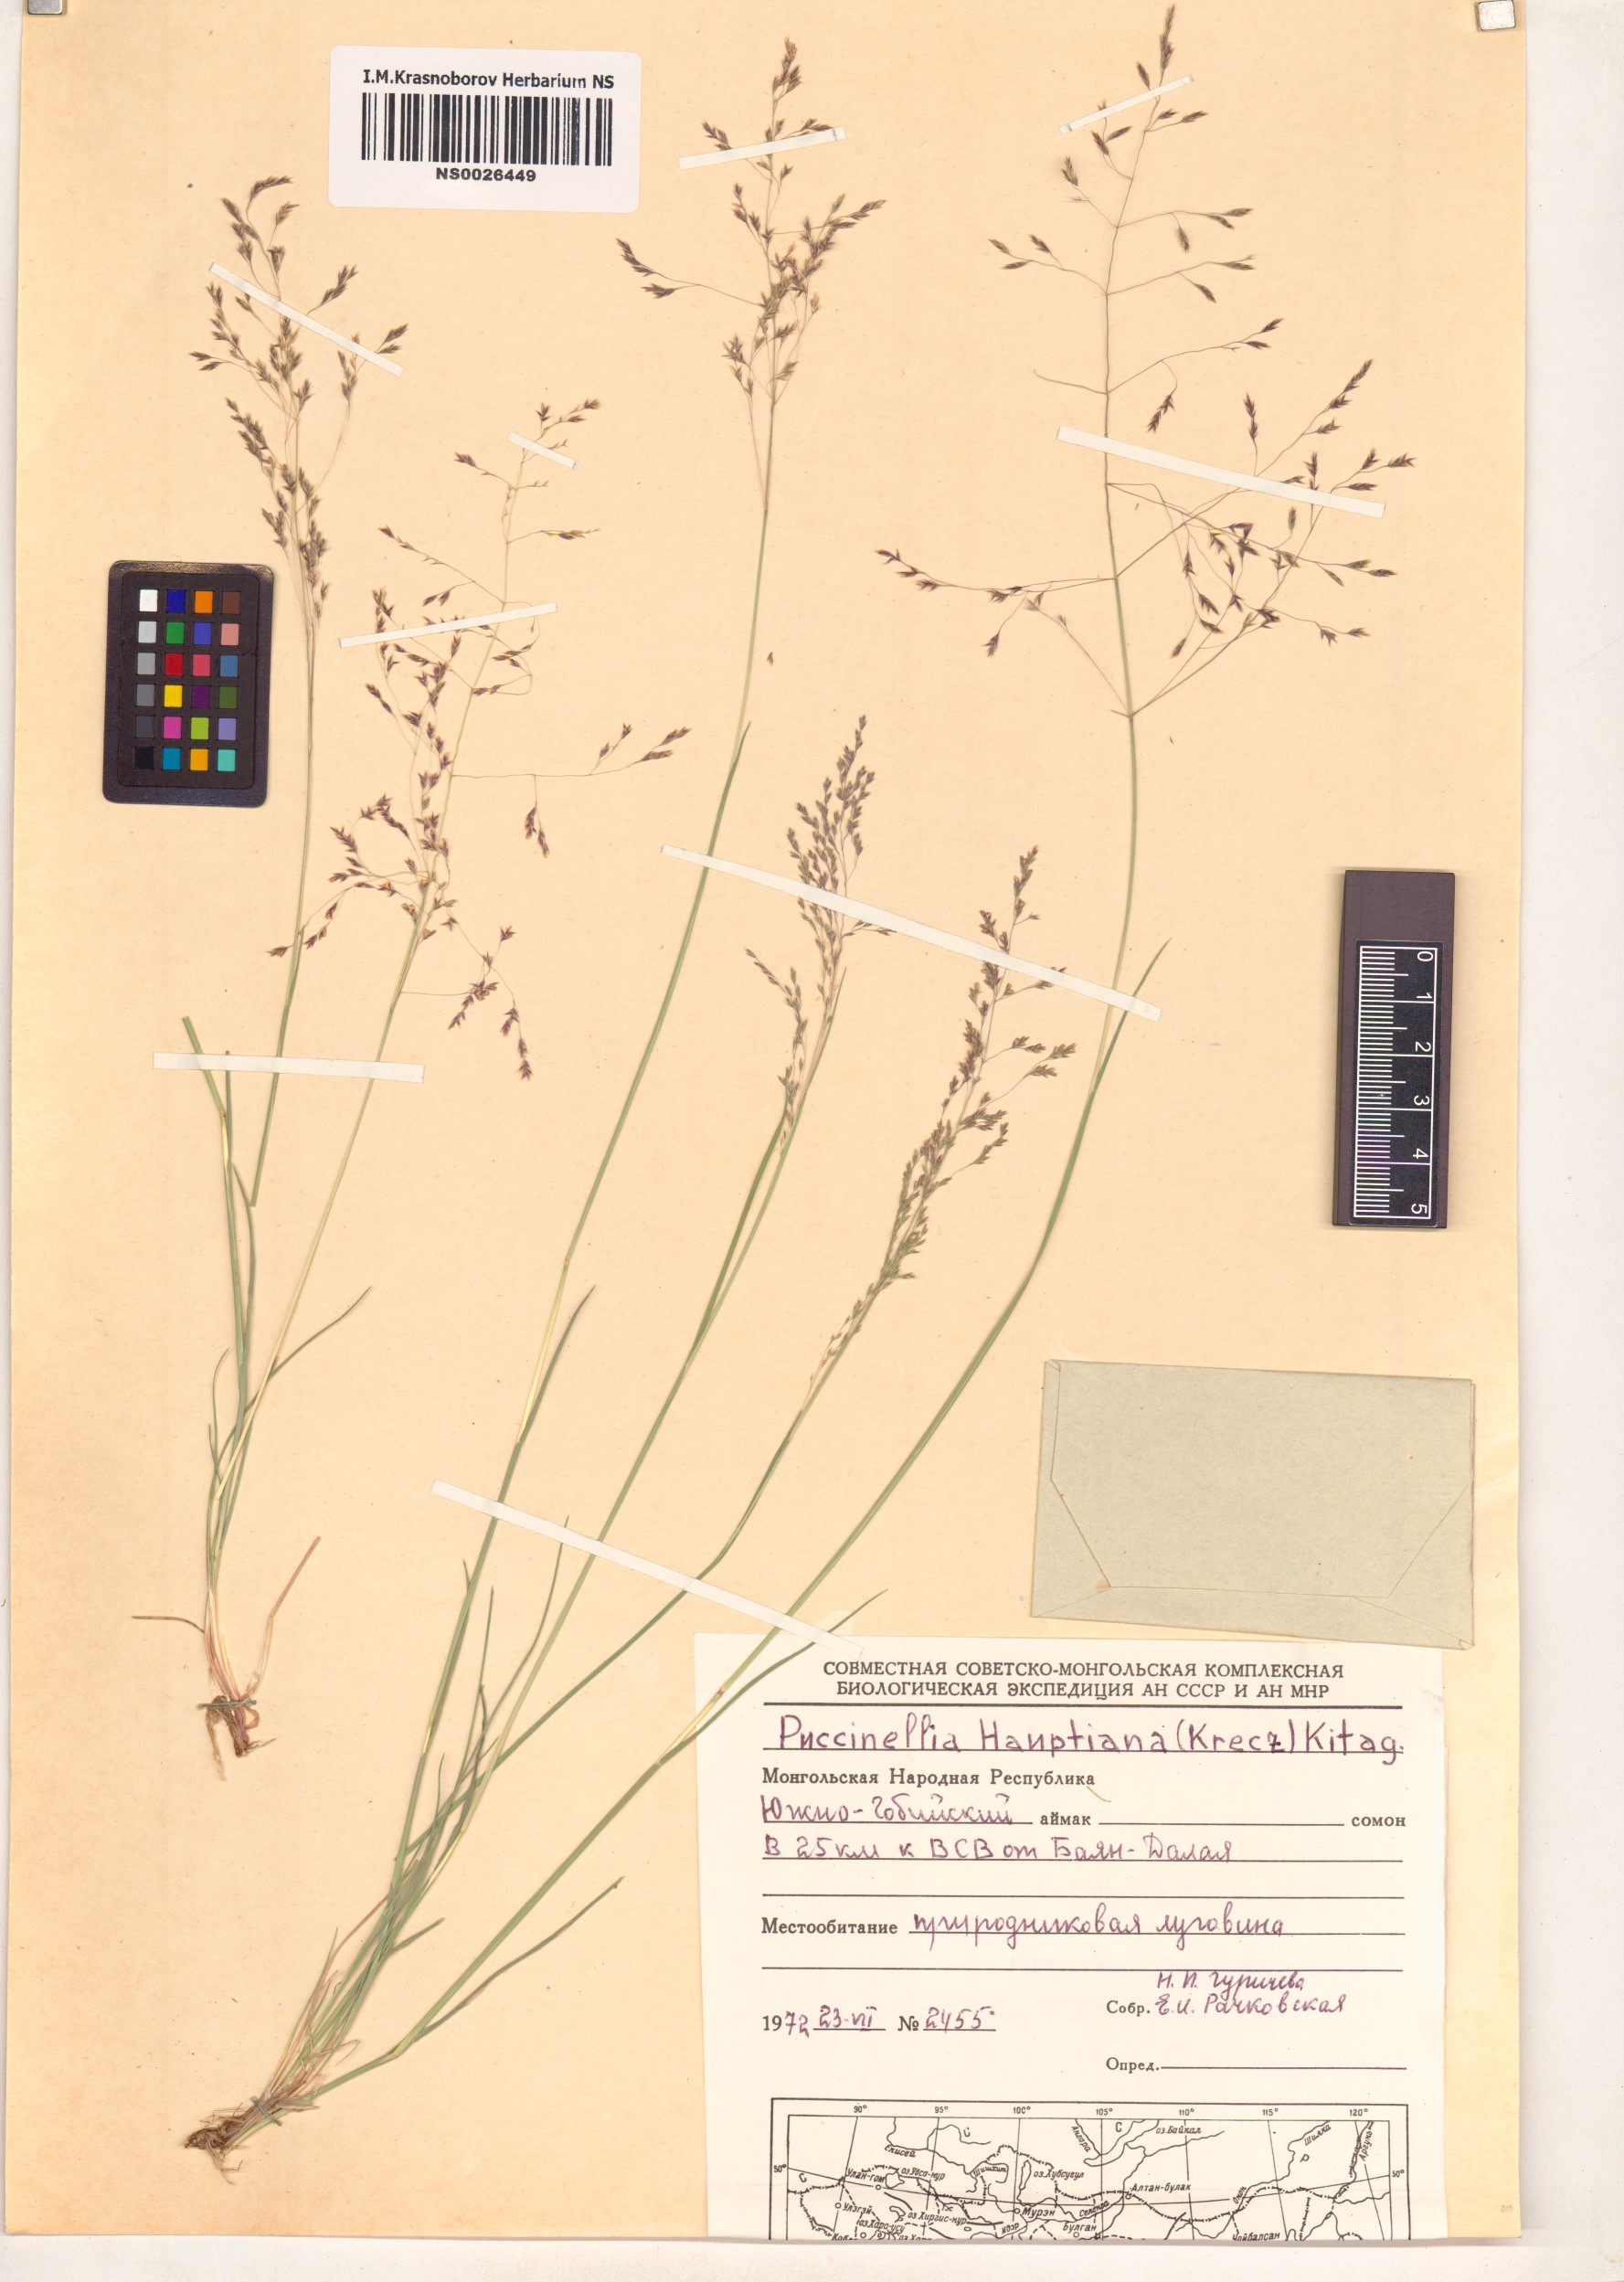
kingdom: Plantae
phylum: Tracheophyta
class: Liliopsida
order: Poales
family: Poaceae
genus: Puccinellia
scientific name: Puccinellia hauptiana
